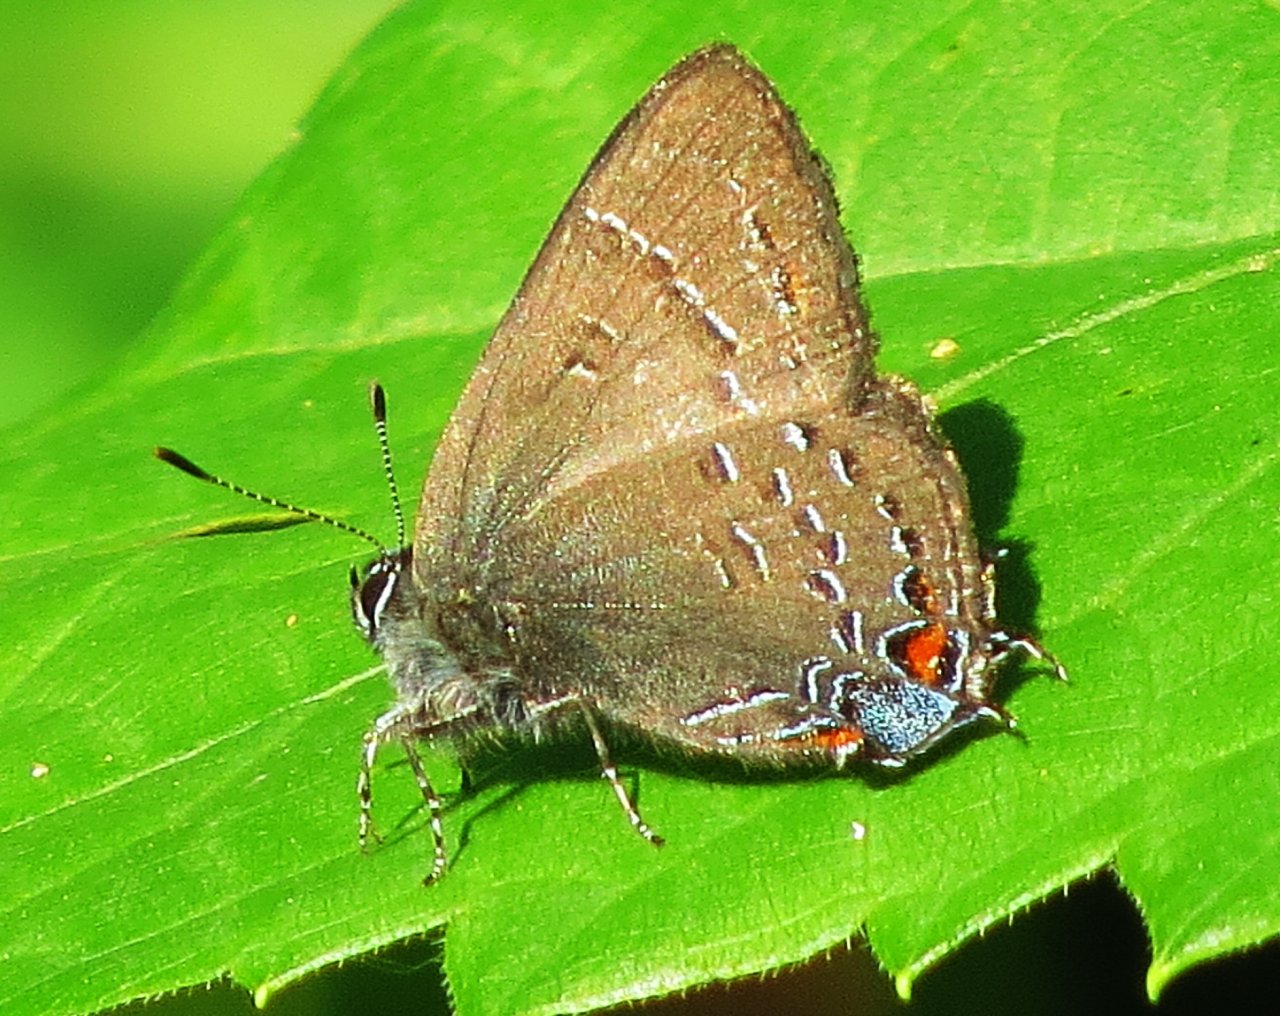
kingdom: Animalia
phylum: Arthropoda
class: Insecta
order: Lepidoptera
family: Lycaenidae
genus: Satyrium
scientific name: Satyrium calanus
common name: Banded Hairstreak
